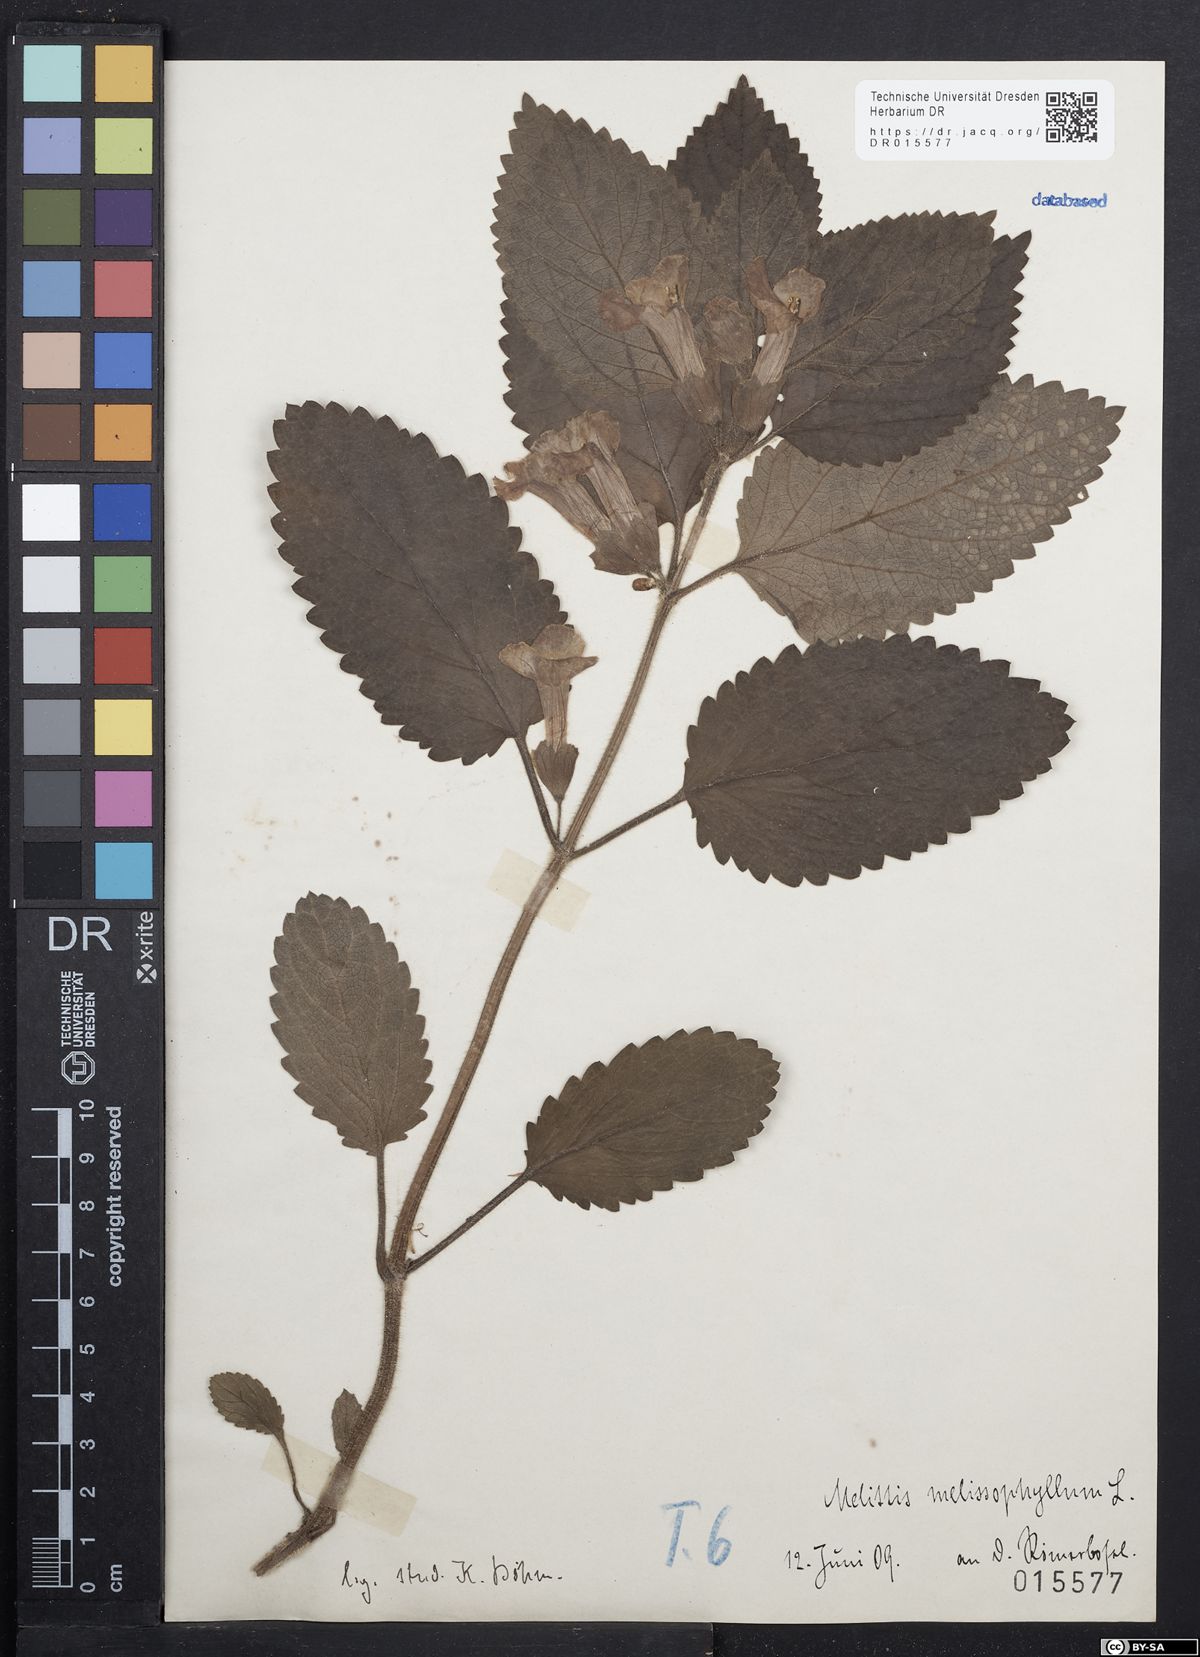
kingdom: Plantae
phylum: Tracheophyta
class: Magnoliopsida
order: Lamiales
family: Lamiaceae
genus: Melittis
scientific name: Melittis melissophyllum
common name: Bastard balm
